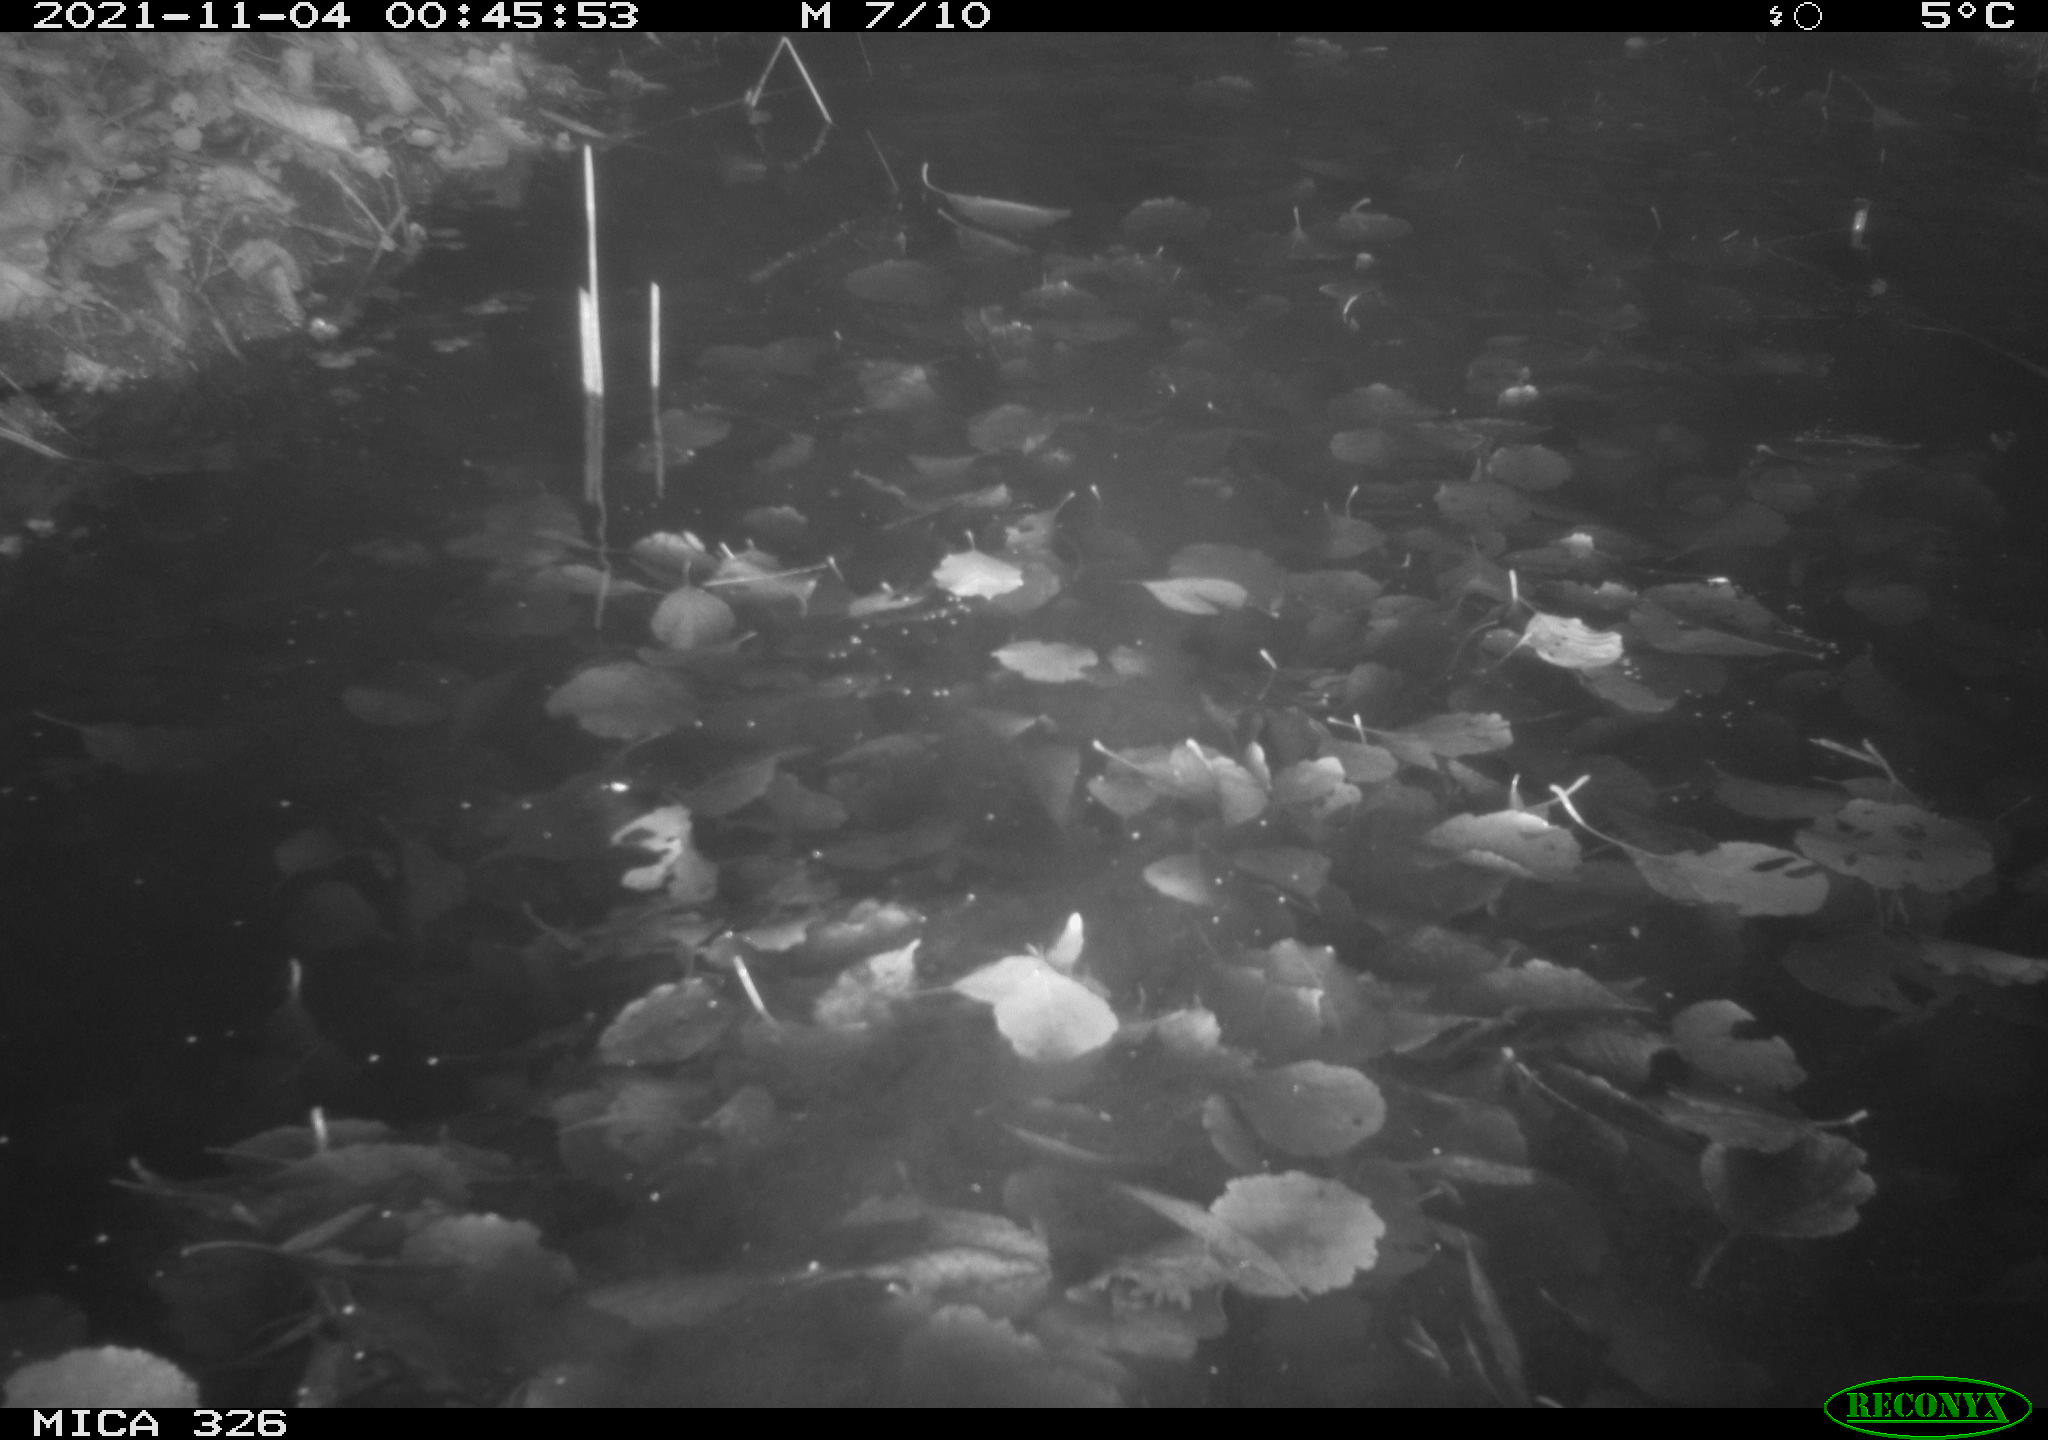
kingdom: Animalia
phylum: Chordata
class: Mammalia
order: Rodentia
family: Myocastoridae
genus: Myocastor
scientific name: Myocastor coypus
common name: Coypu
